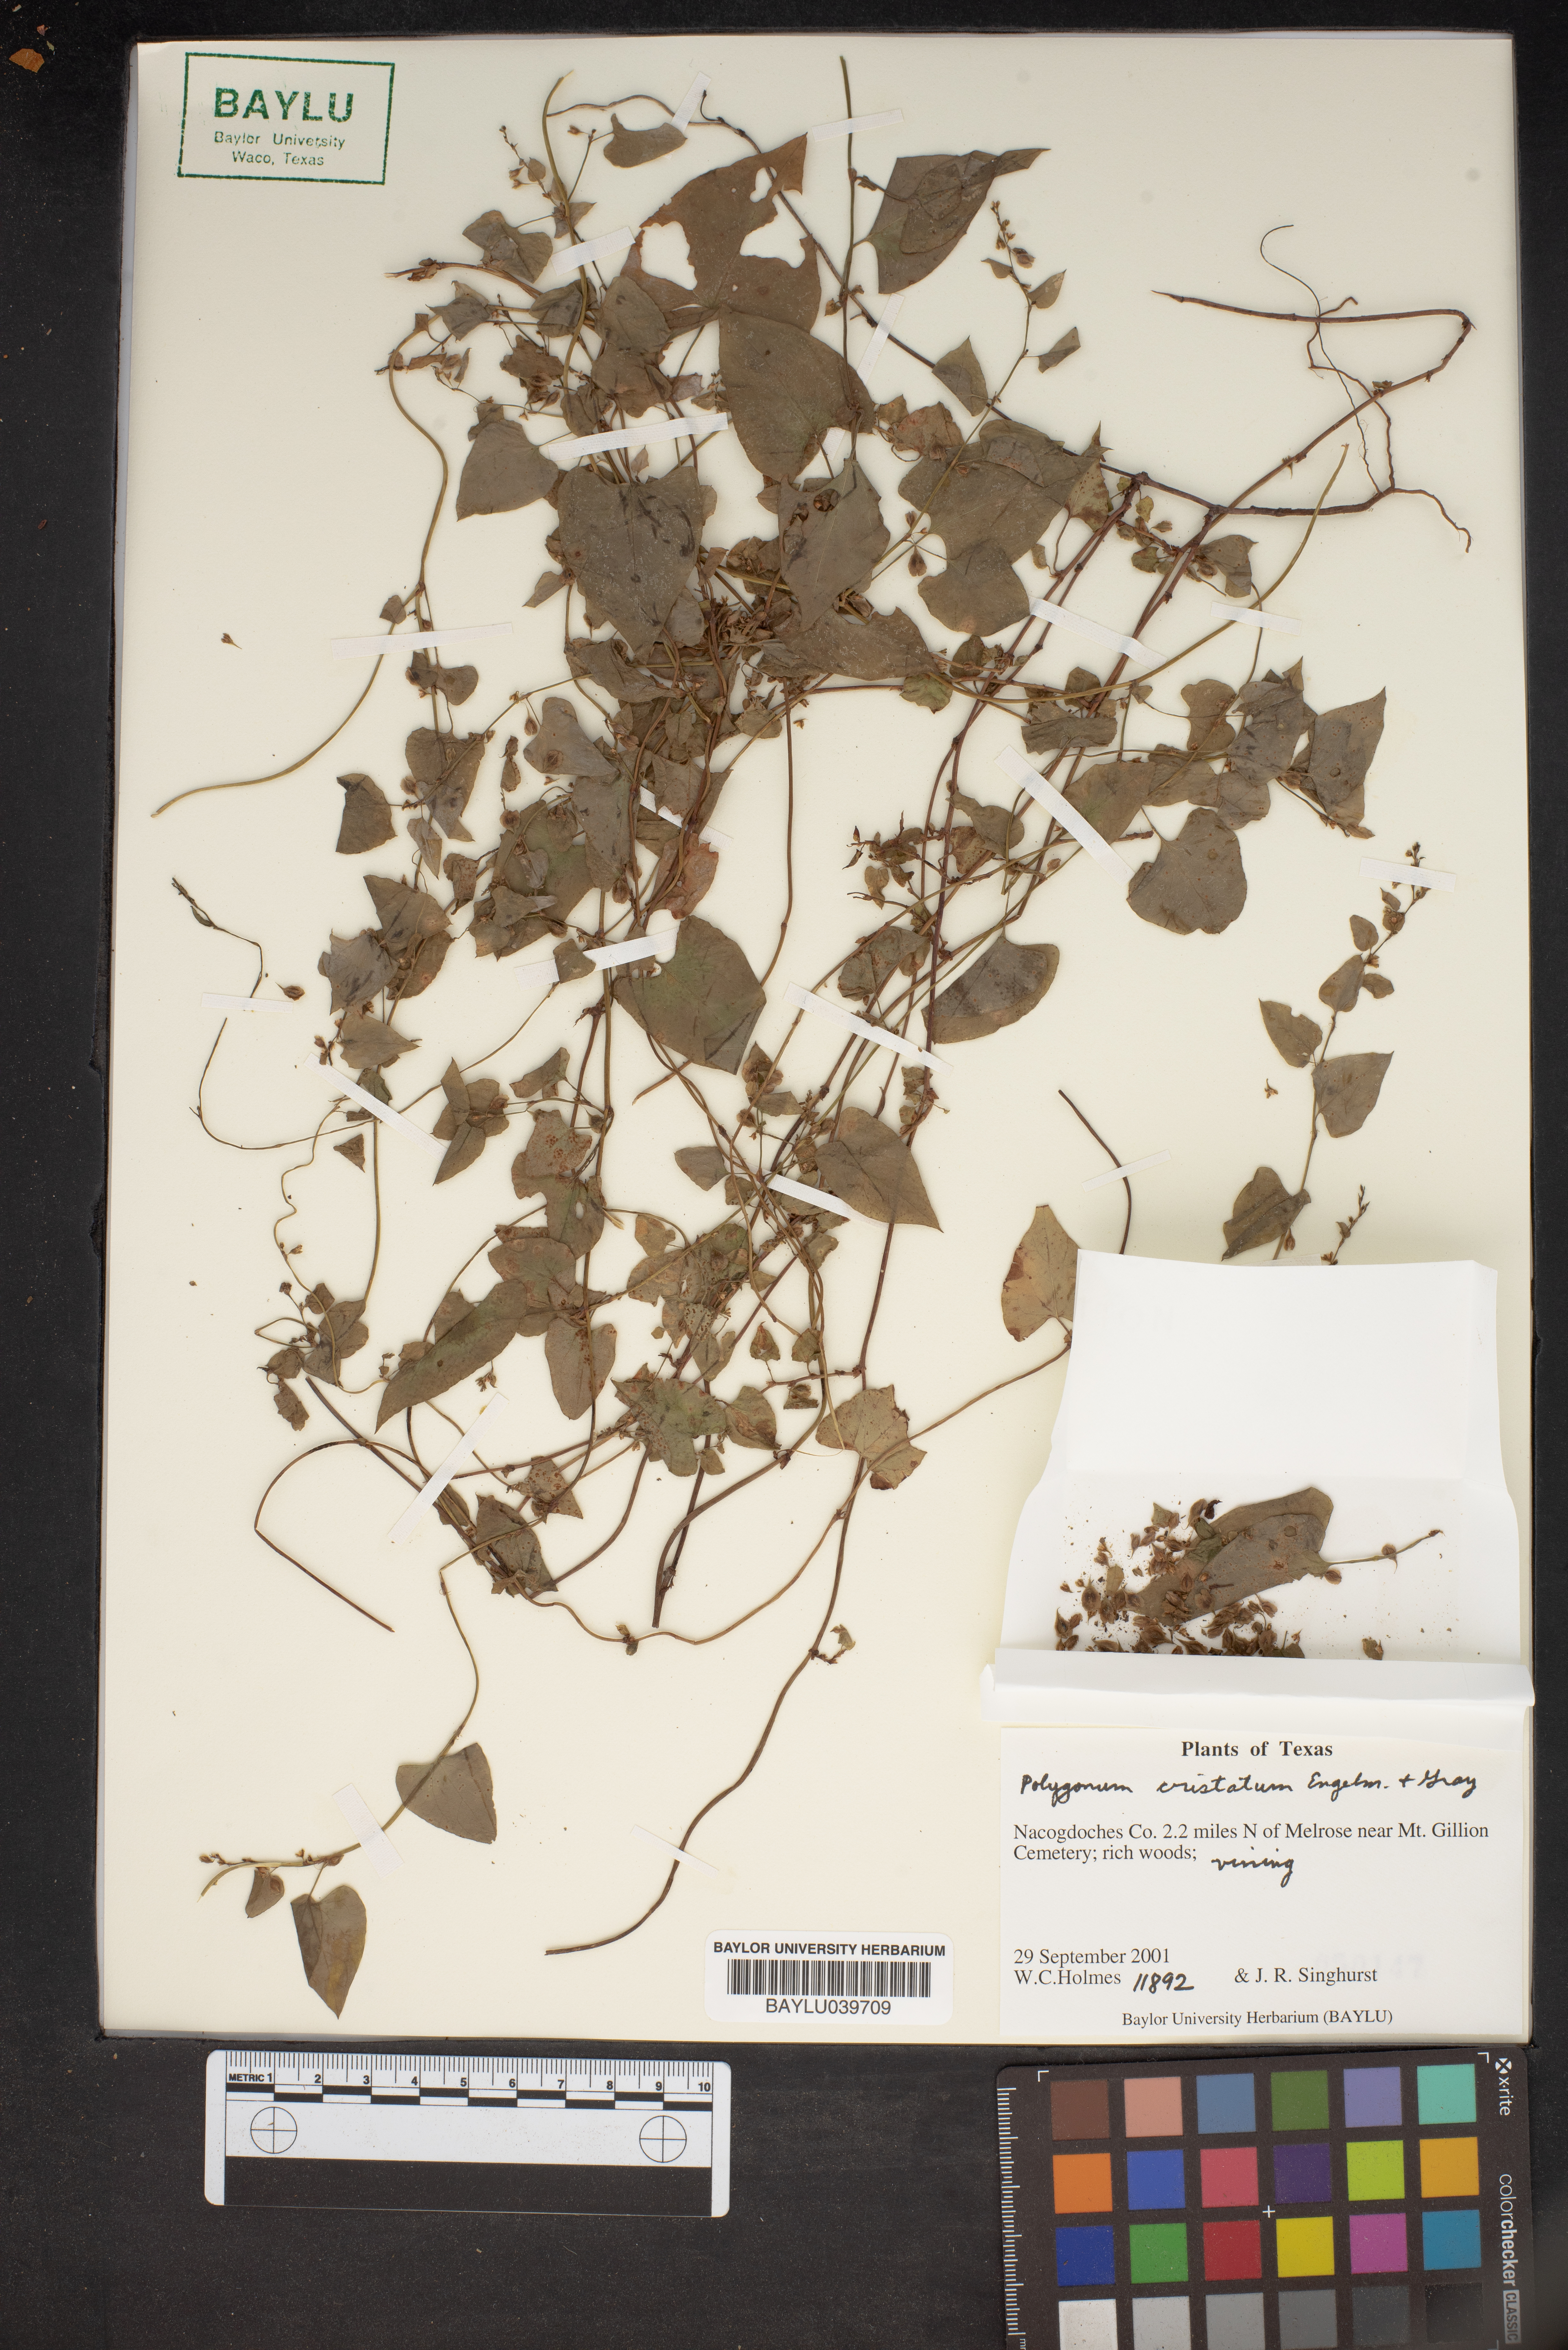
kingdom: Plantae
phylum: Tracheophyta
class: Magnoliopsida
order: Caryophyllales
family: Polygonaceae
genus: Fallopia
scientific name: Fallopia scandens
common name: Climbing false buckwheat
